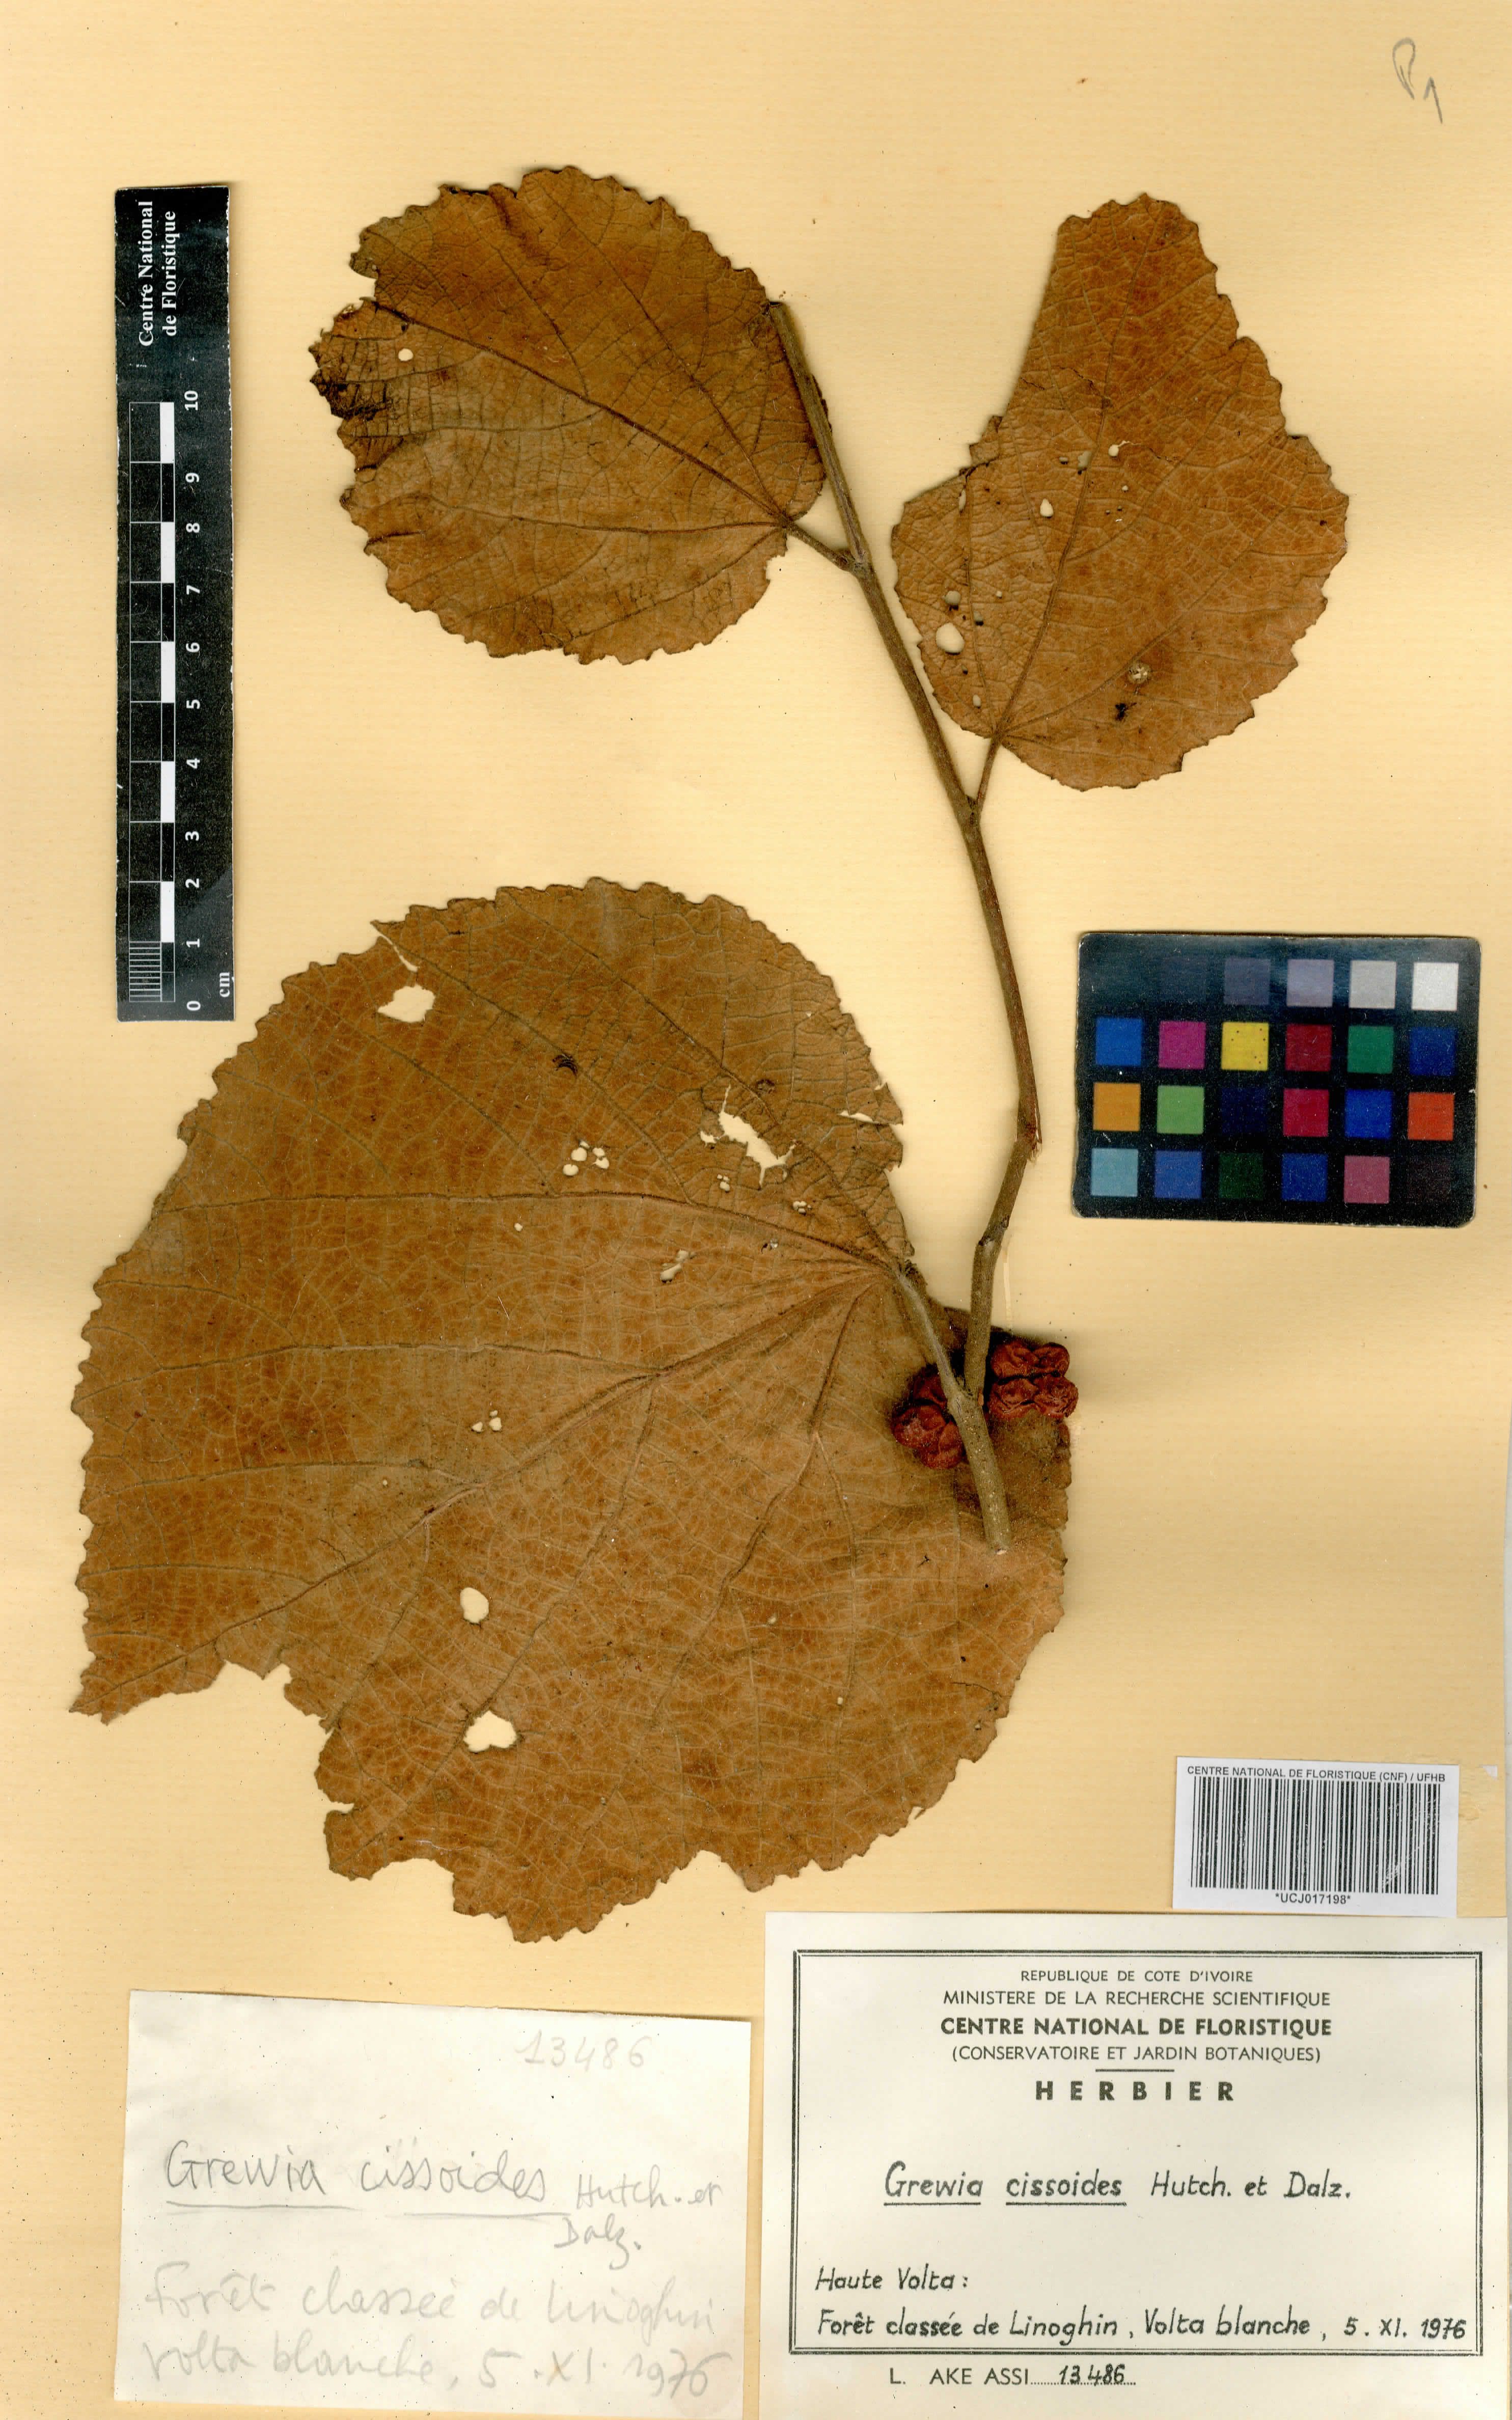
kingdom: Plantae
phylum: Tracheophyta
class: Magnoliopsida
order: Malvales
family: Malvaceae
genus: Grewia
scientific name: Grewia cissoides
